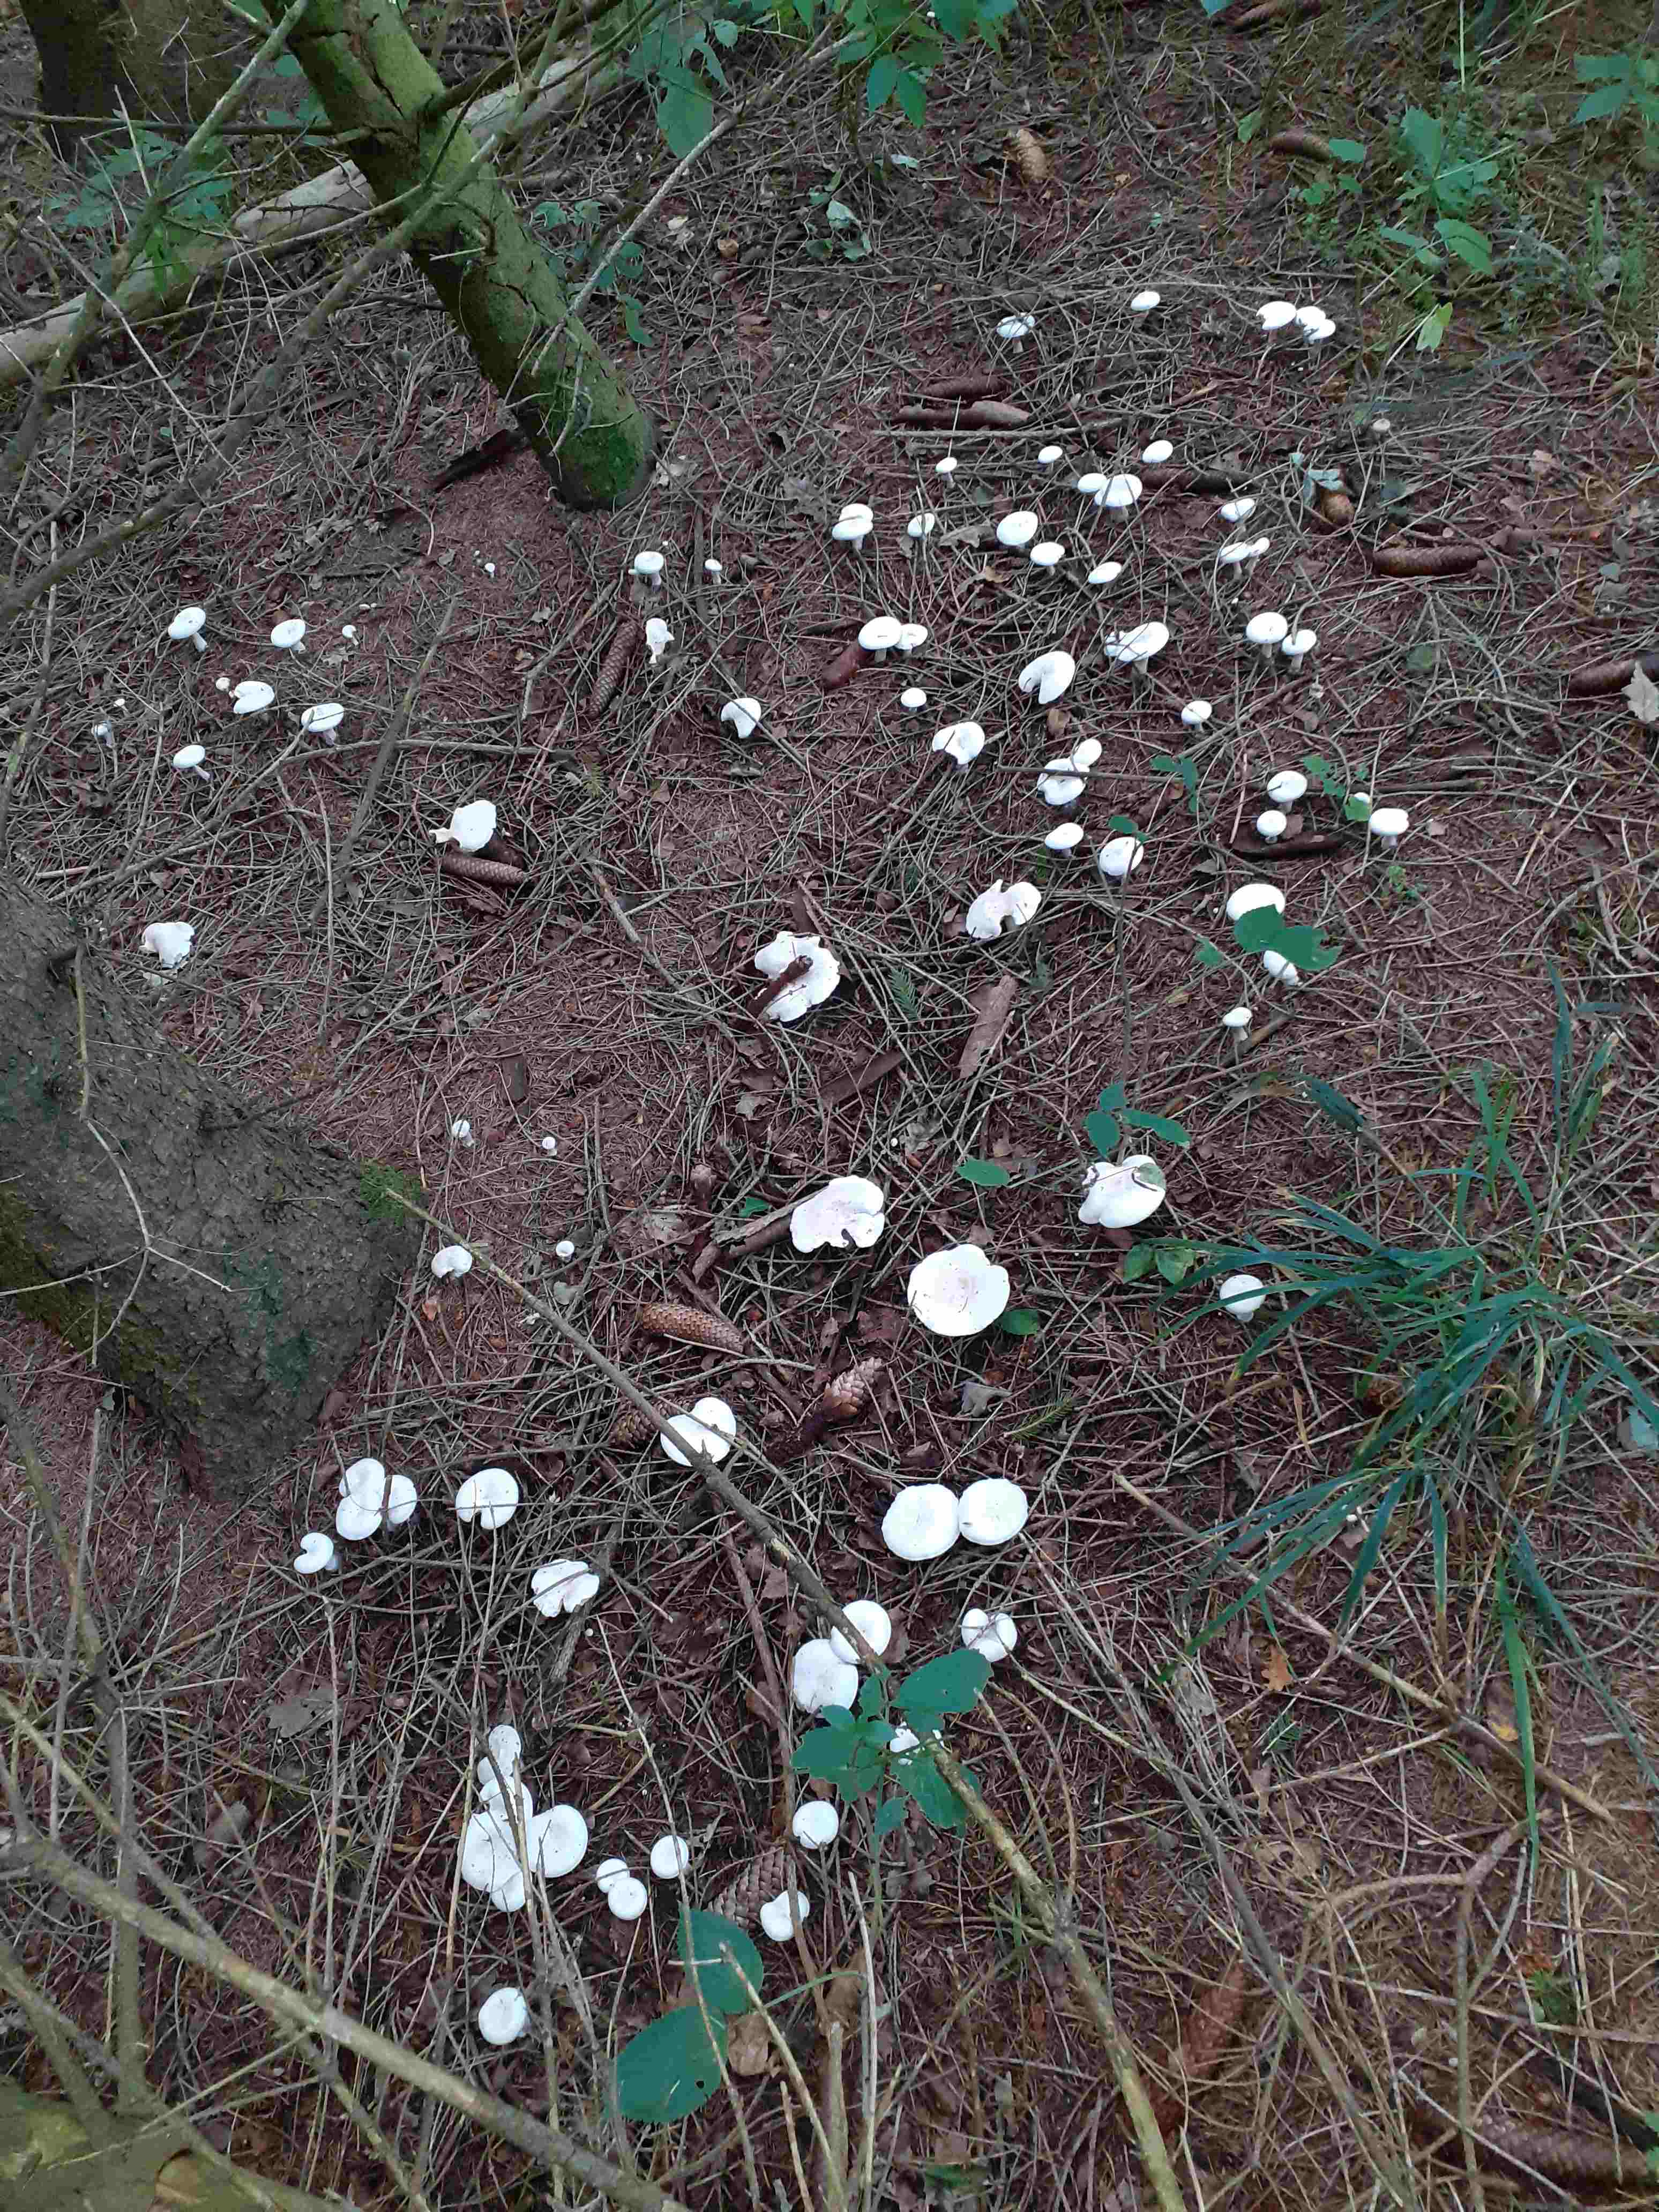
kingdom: Fungi
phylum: Basidiomycota
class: Agaricomycetes
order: Agaricales
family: Tricholomataceae
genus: Clitocybe
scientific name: Clitocybe phyllophila
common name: løv-tragthat
